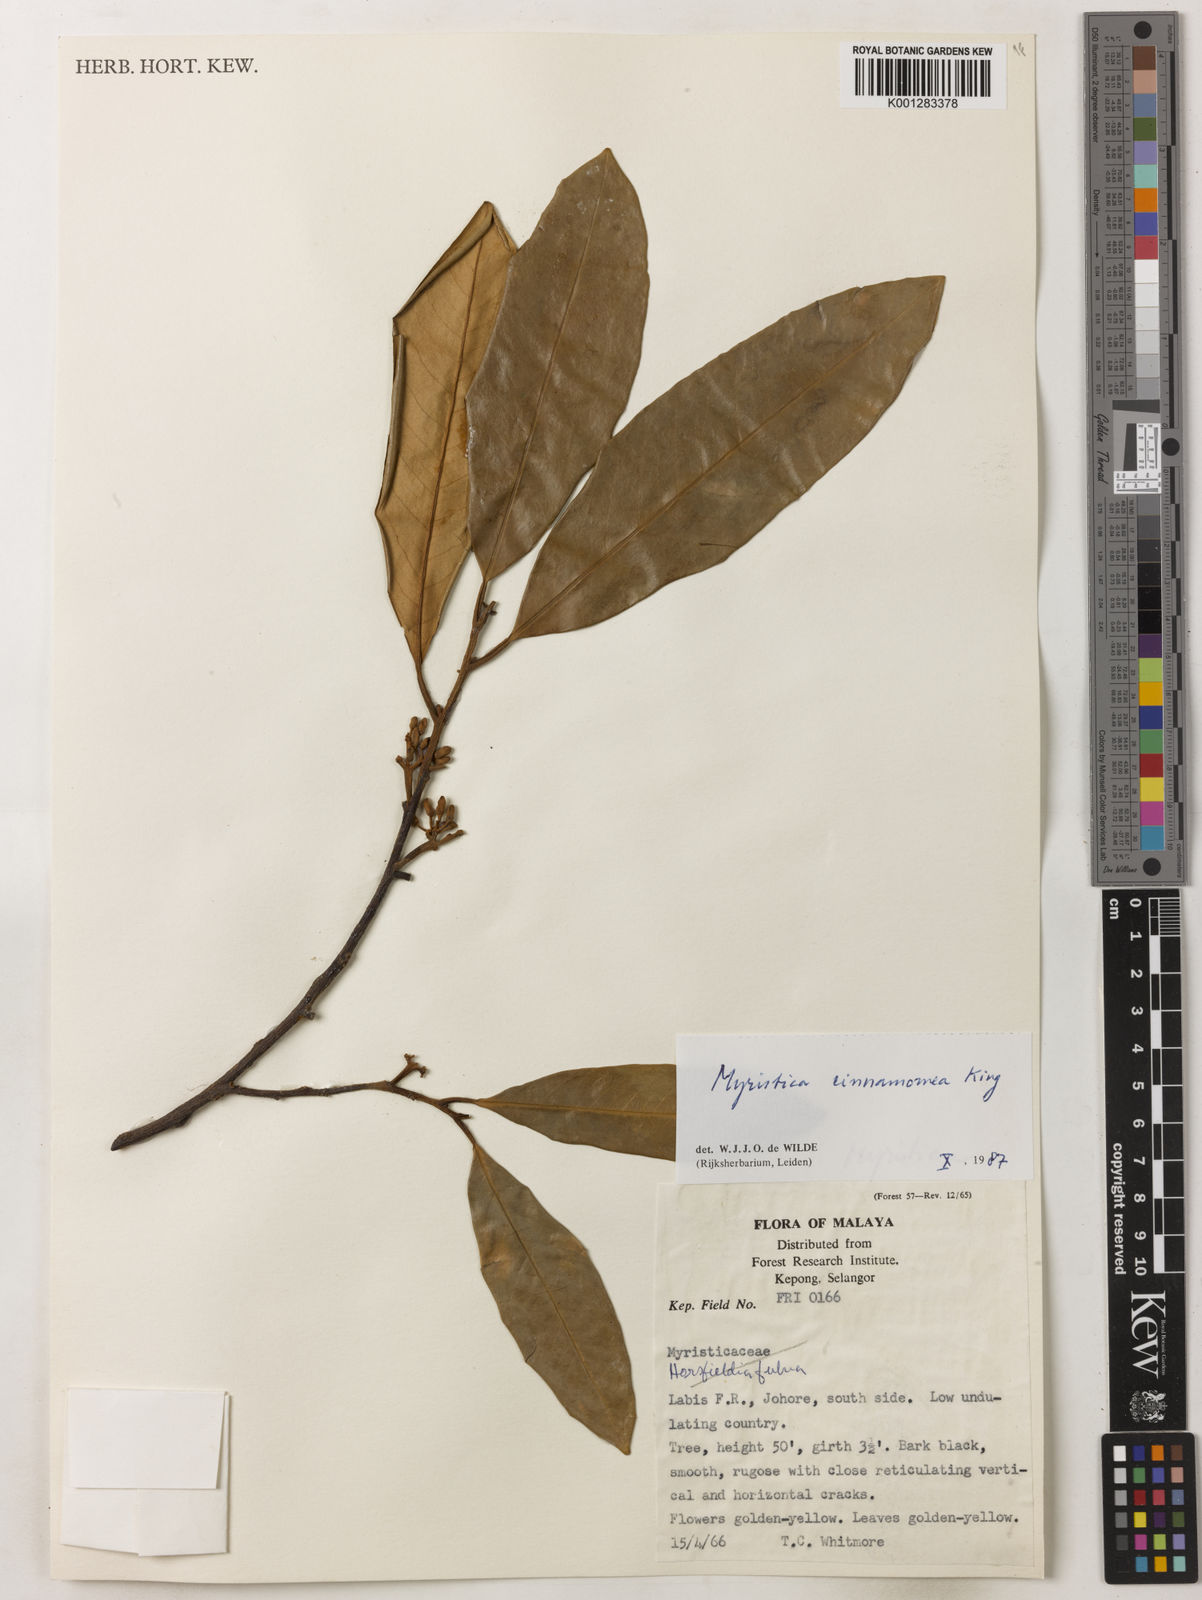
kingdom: Plantae
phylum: Tracheophyta
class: Magnoliopsida
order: Magnoliales
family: Myristicaceae
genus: Myristica
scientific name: Myristica cinnamomea
